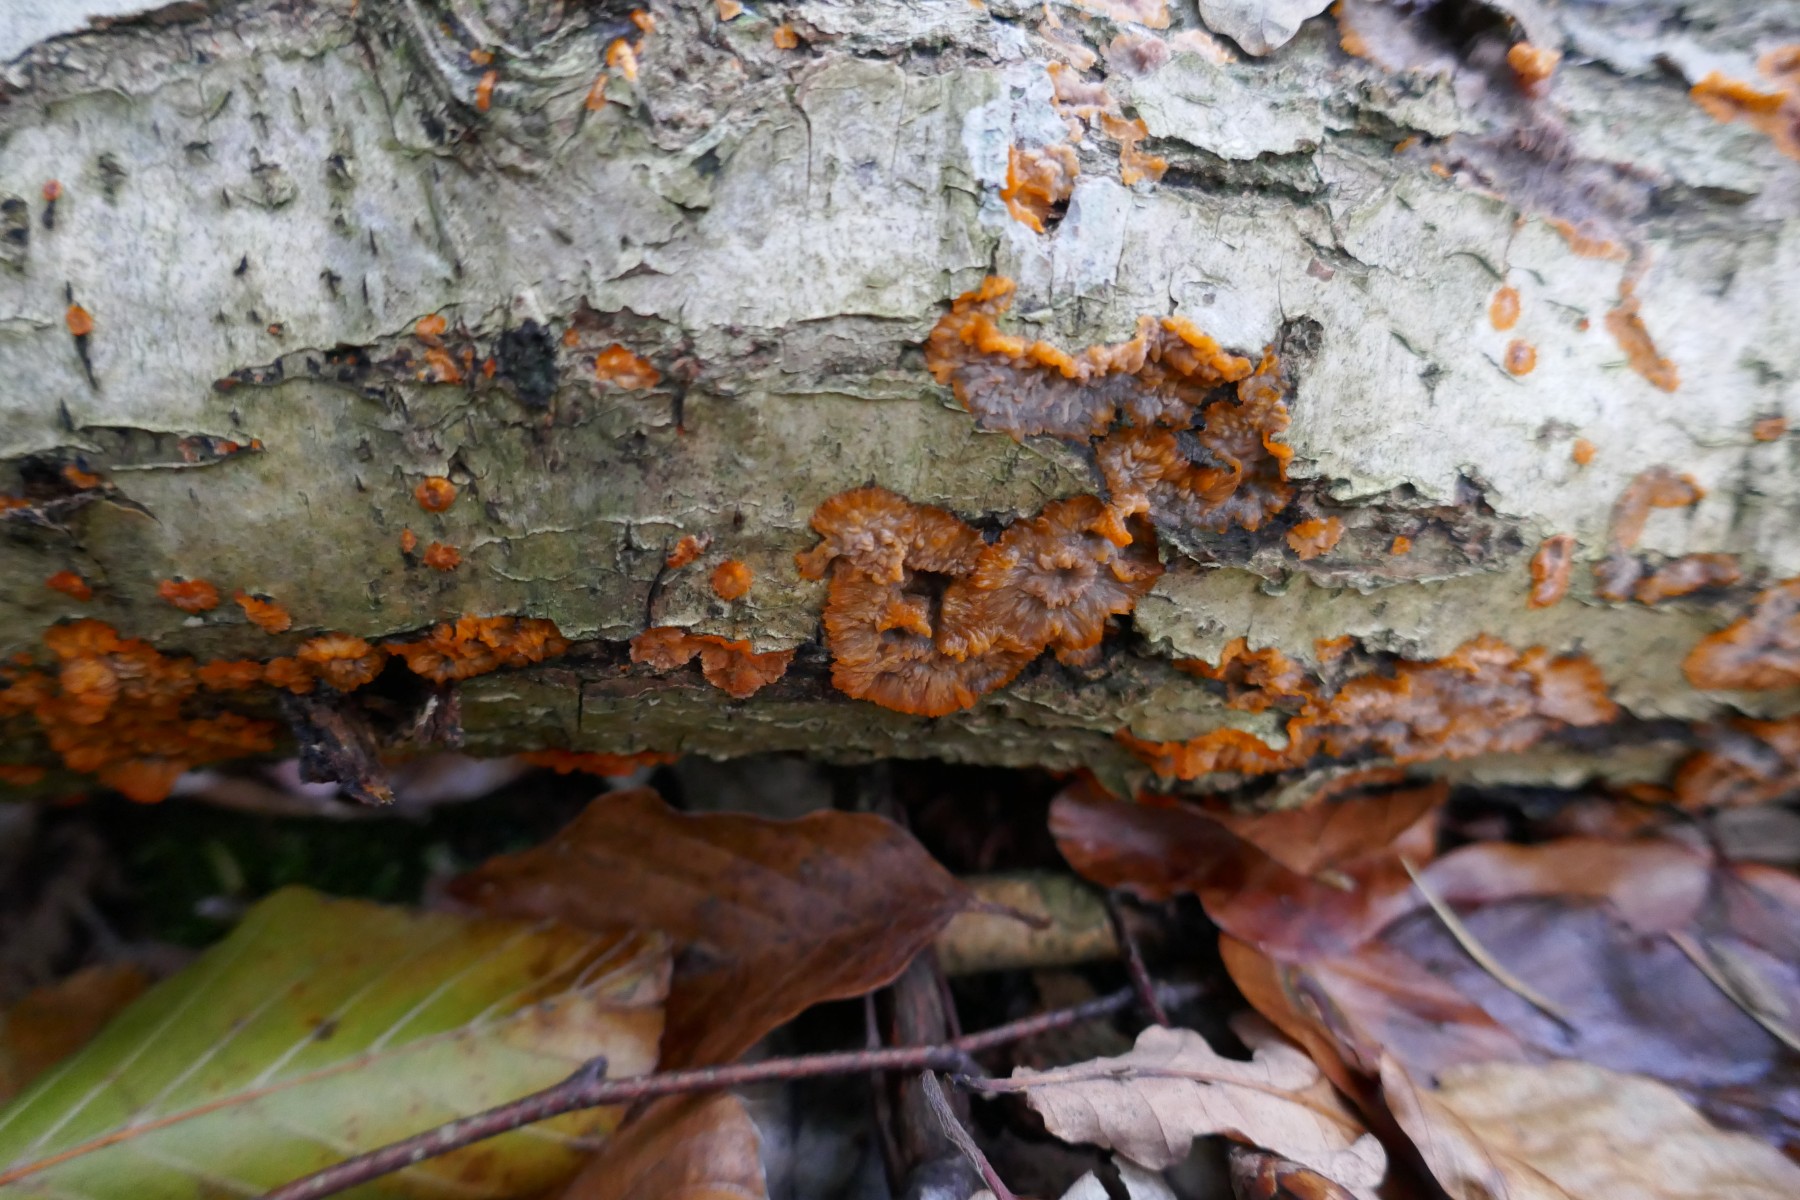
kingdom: Fungi
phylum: Basidiomycota
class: Agaricomycetes
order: Polyporales
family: Meruliaceae
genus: Phlebia
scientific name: Phlebia radiata
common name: stråle-åresvamp
